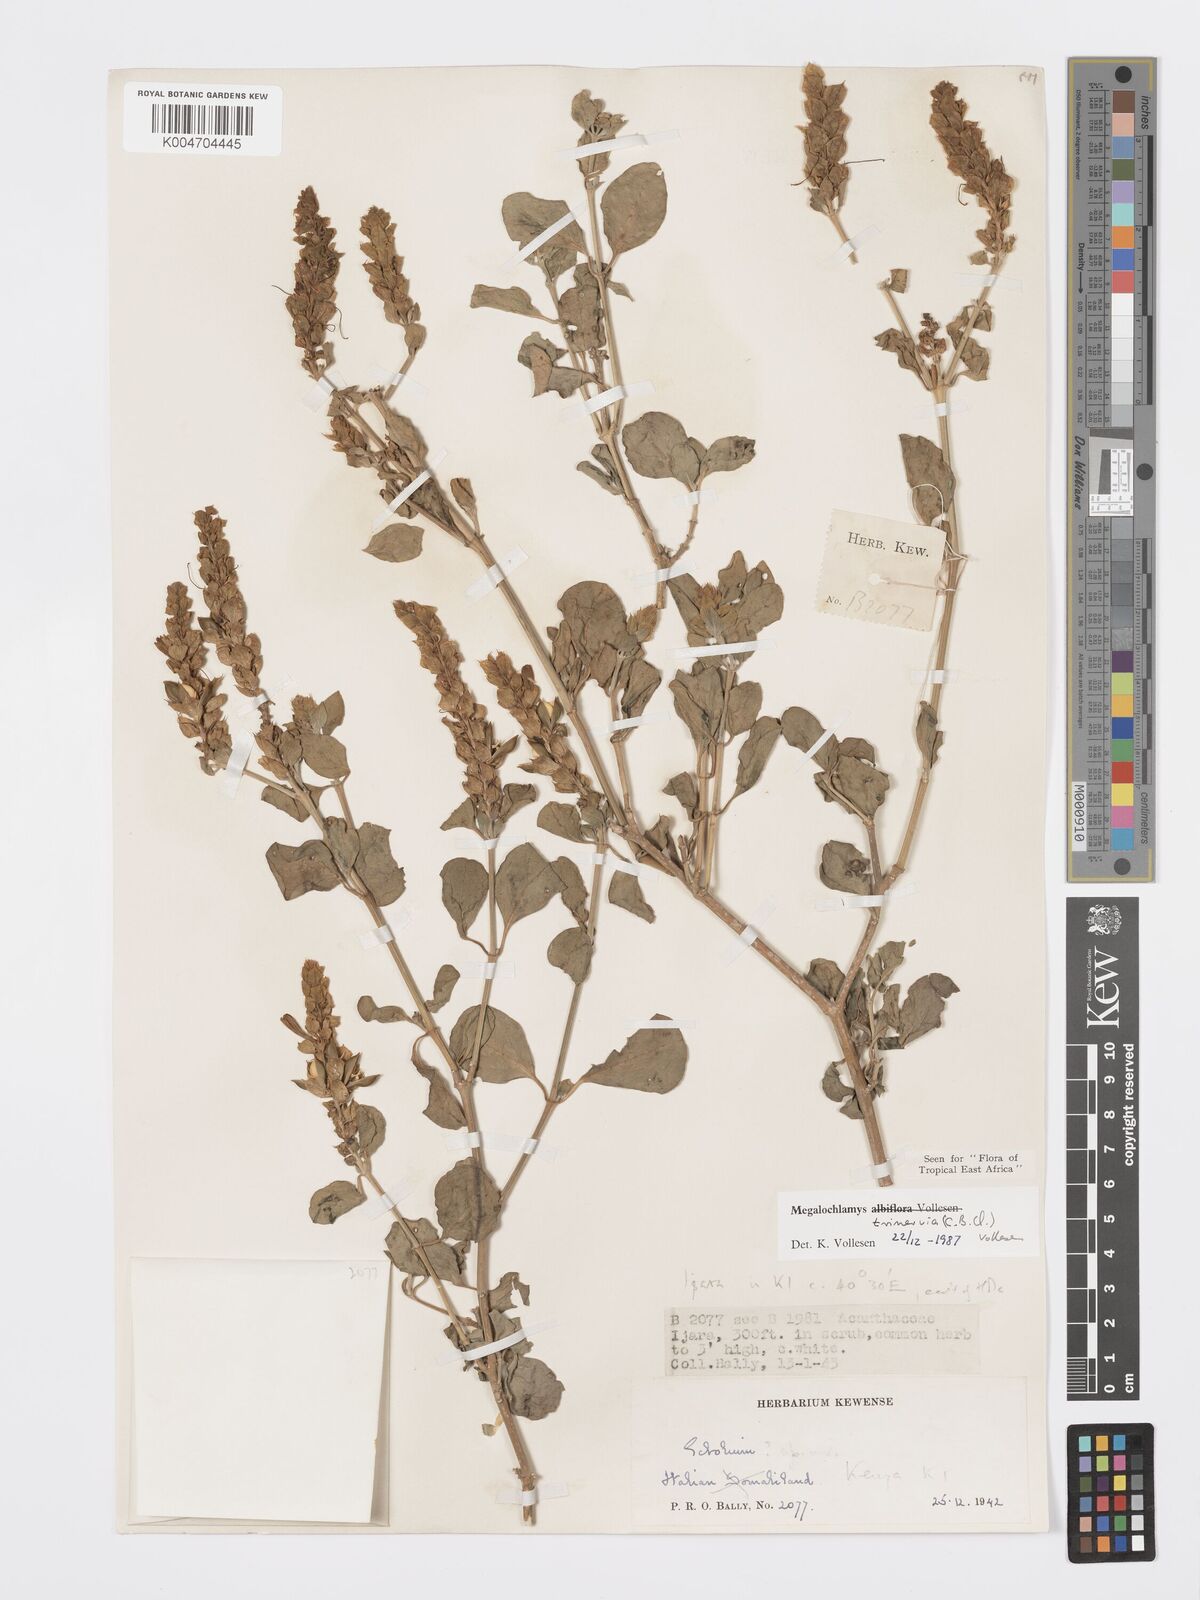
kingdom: Plantae
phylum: Tracheophyta
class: Magnoliopsida
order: Lamiales
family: Acanthaceae
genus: Megalochlamys
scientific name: Megalochlamys trinervia
